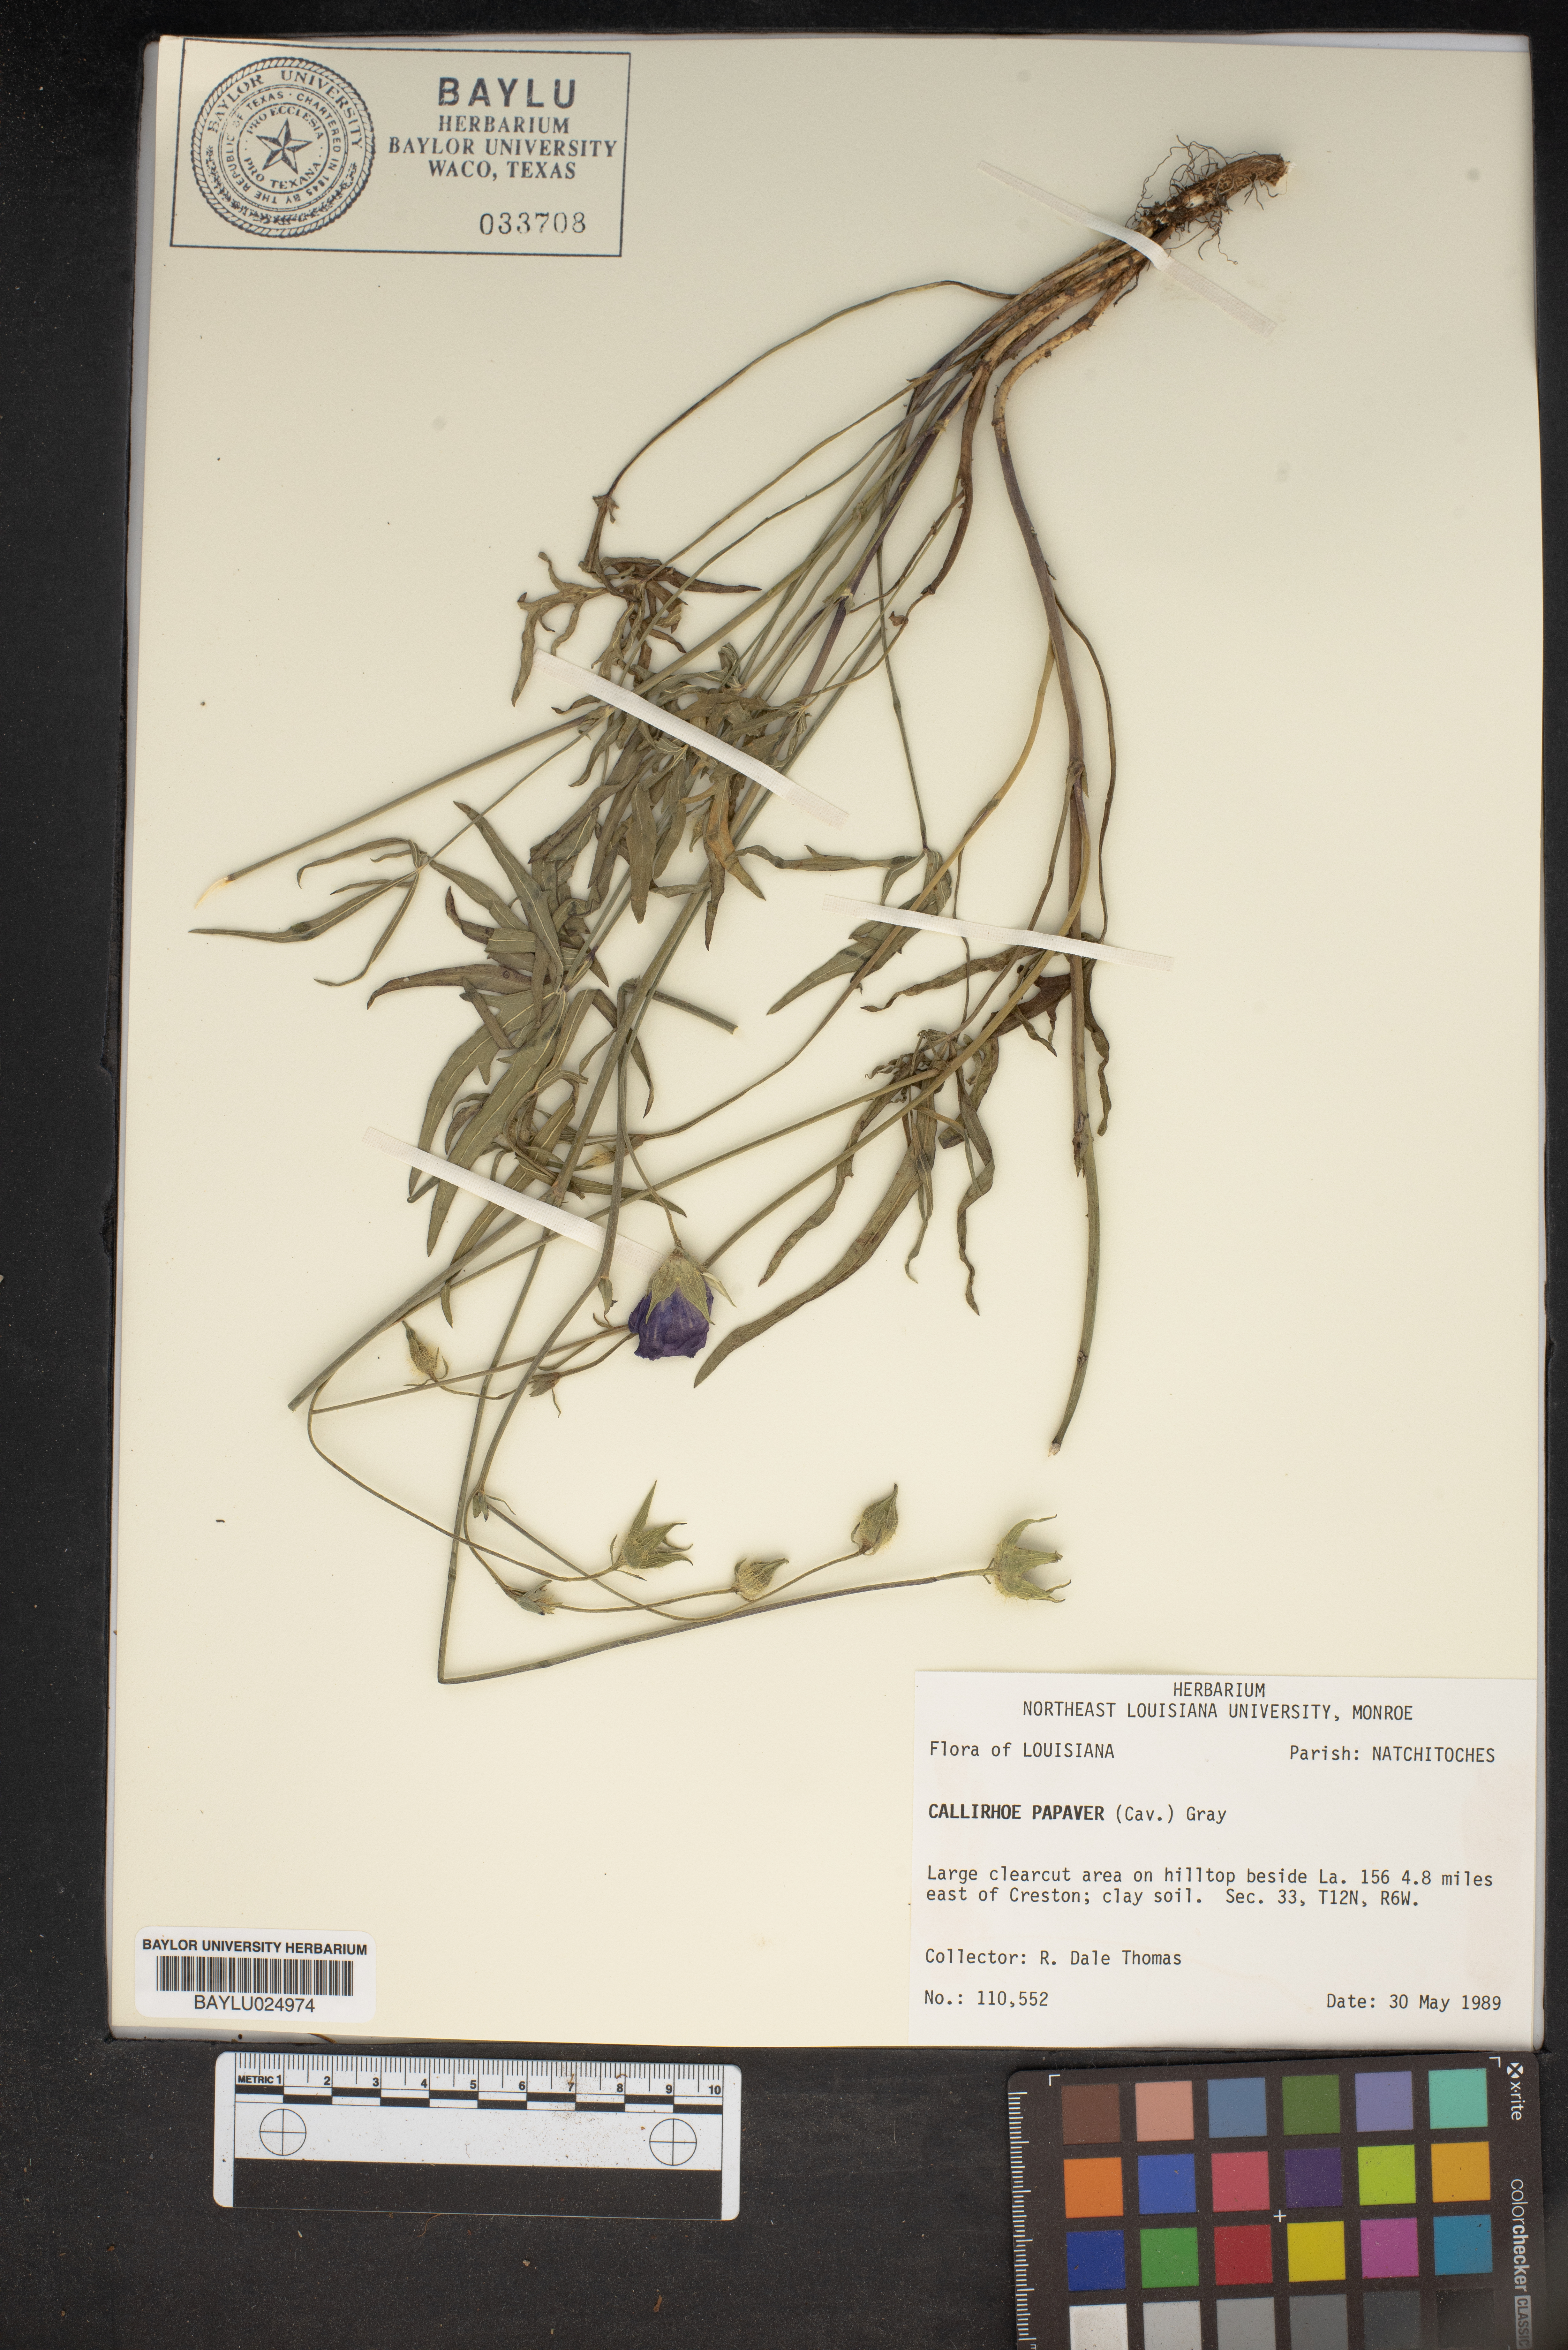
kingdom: Plantae
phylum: Tracheophyta
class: Magnoliopsida
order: Malvales
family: Malvaceae
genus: Callirhoe
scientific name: Callirhoe papaver
